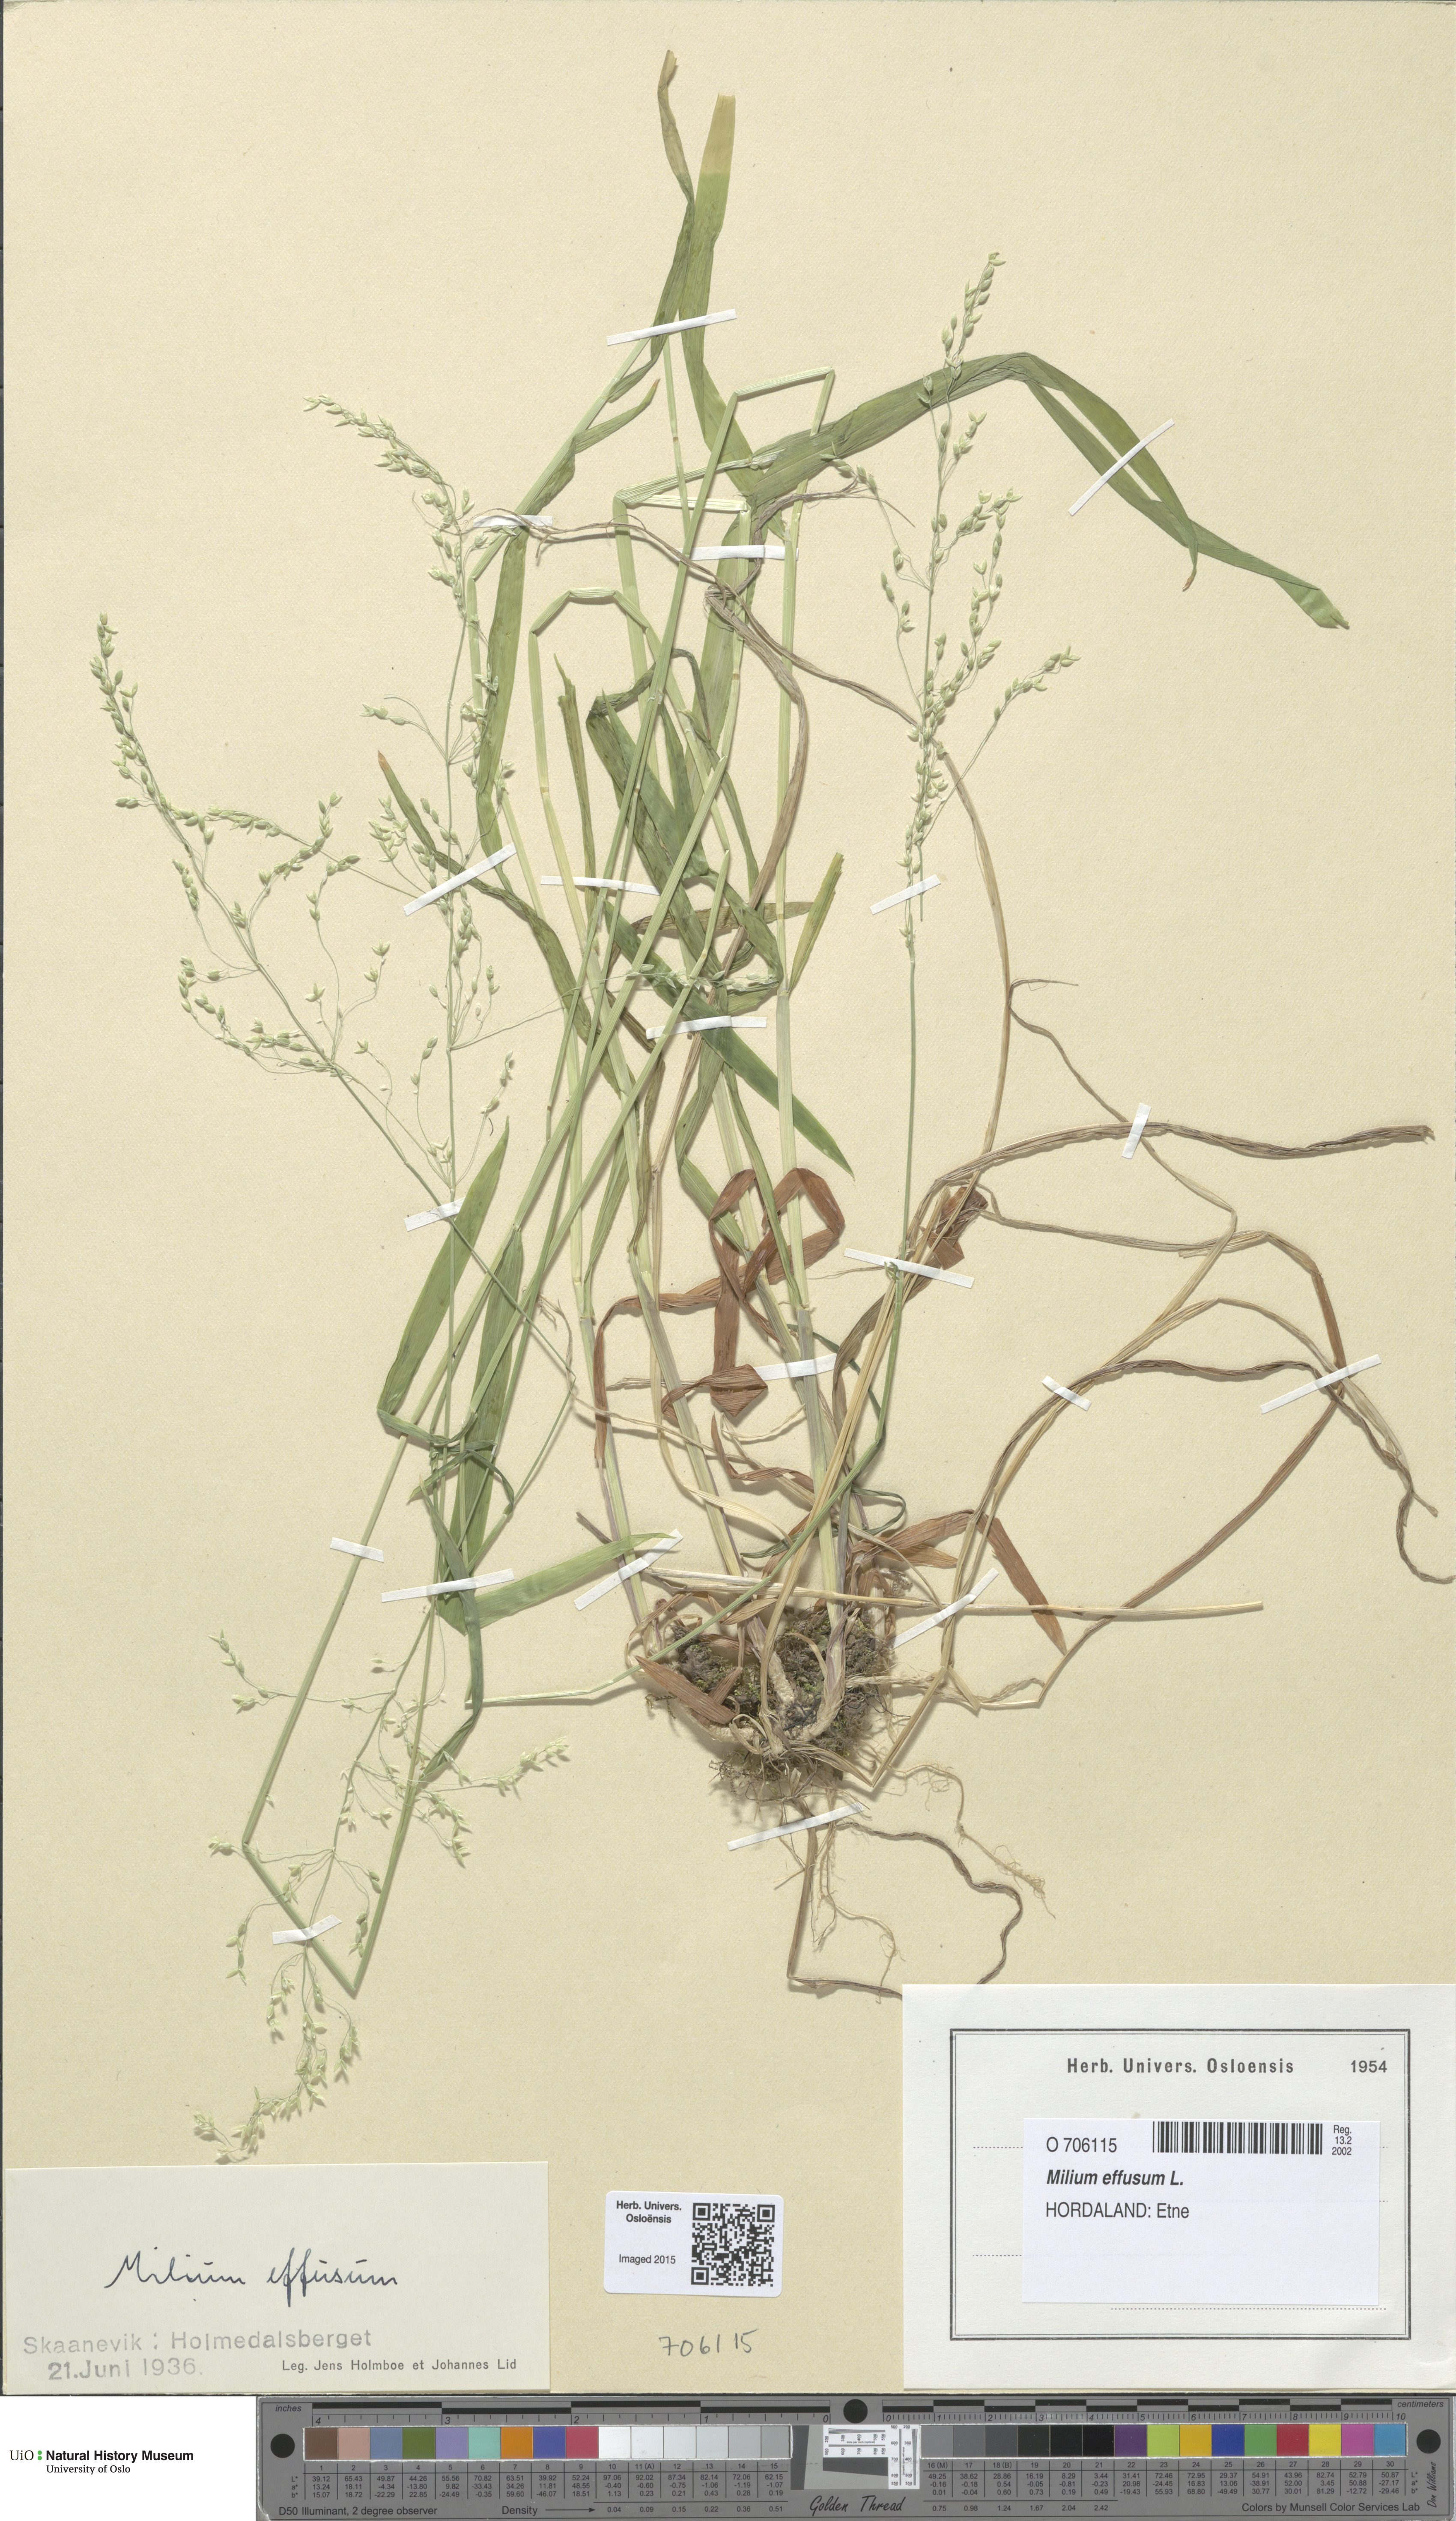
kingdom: Plantae
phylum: Tracheophyta
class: Liliopsida
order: Poales
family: Poaceae
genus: Milium
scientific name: Milium effusum
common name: Wood millet
